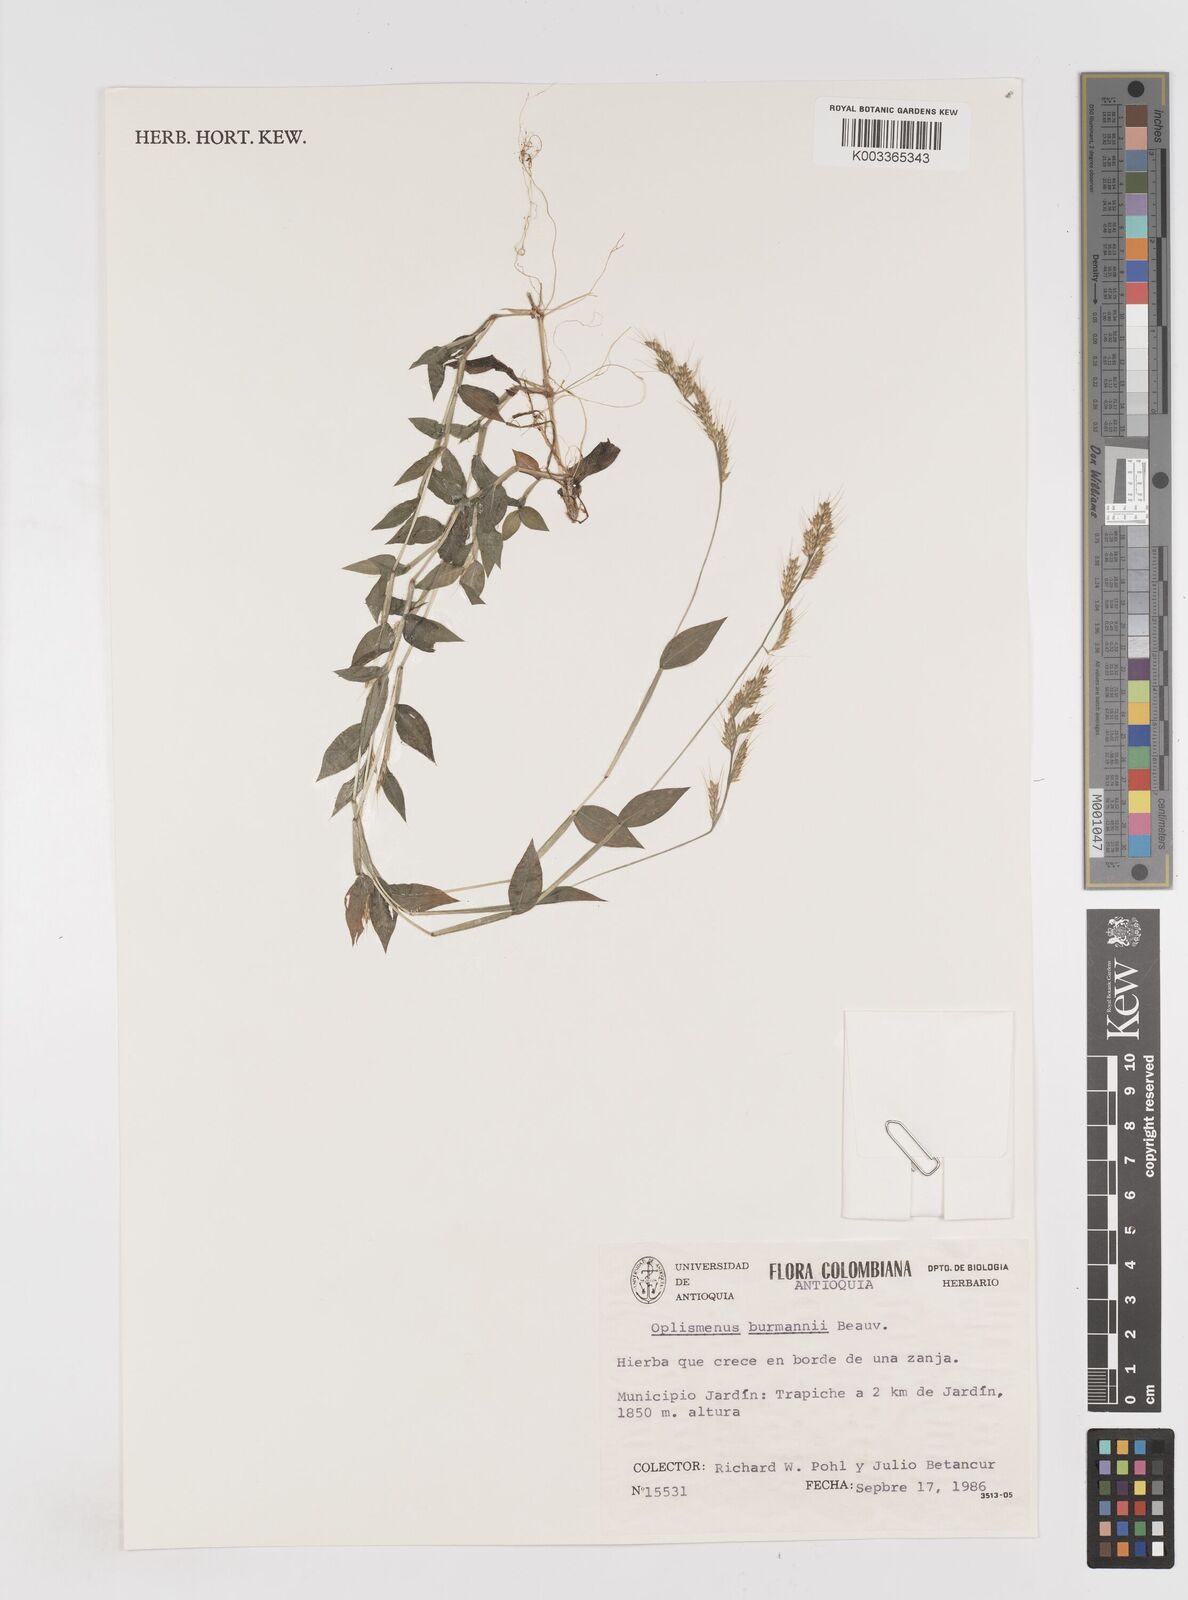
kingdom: Plantae
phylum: Tracheophyta
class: Liliopsida
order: Poales
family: Poaceae
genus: Oplismenus
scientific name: Oplismenus burmanni
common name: Burmann's basketgrass
